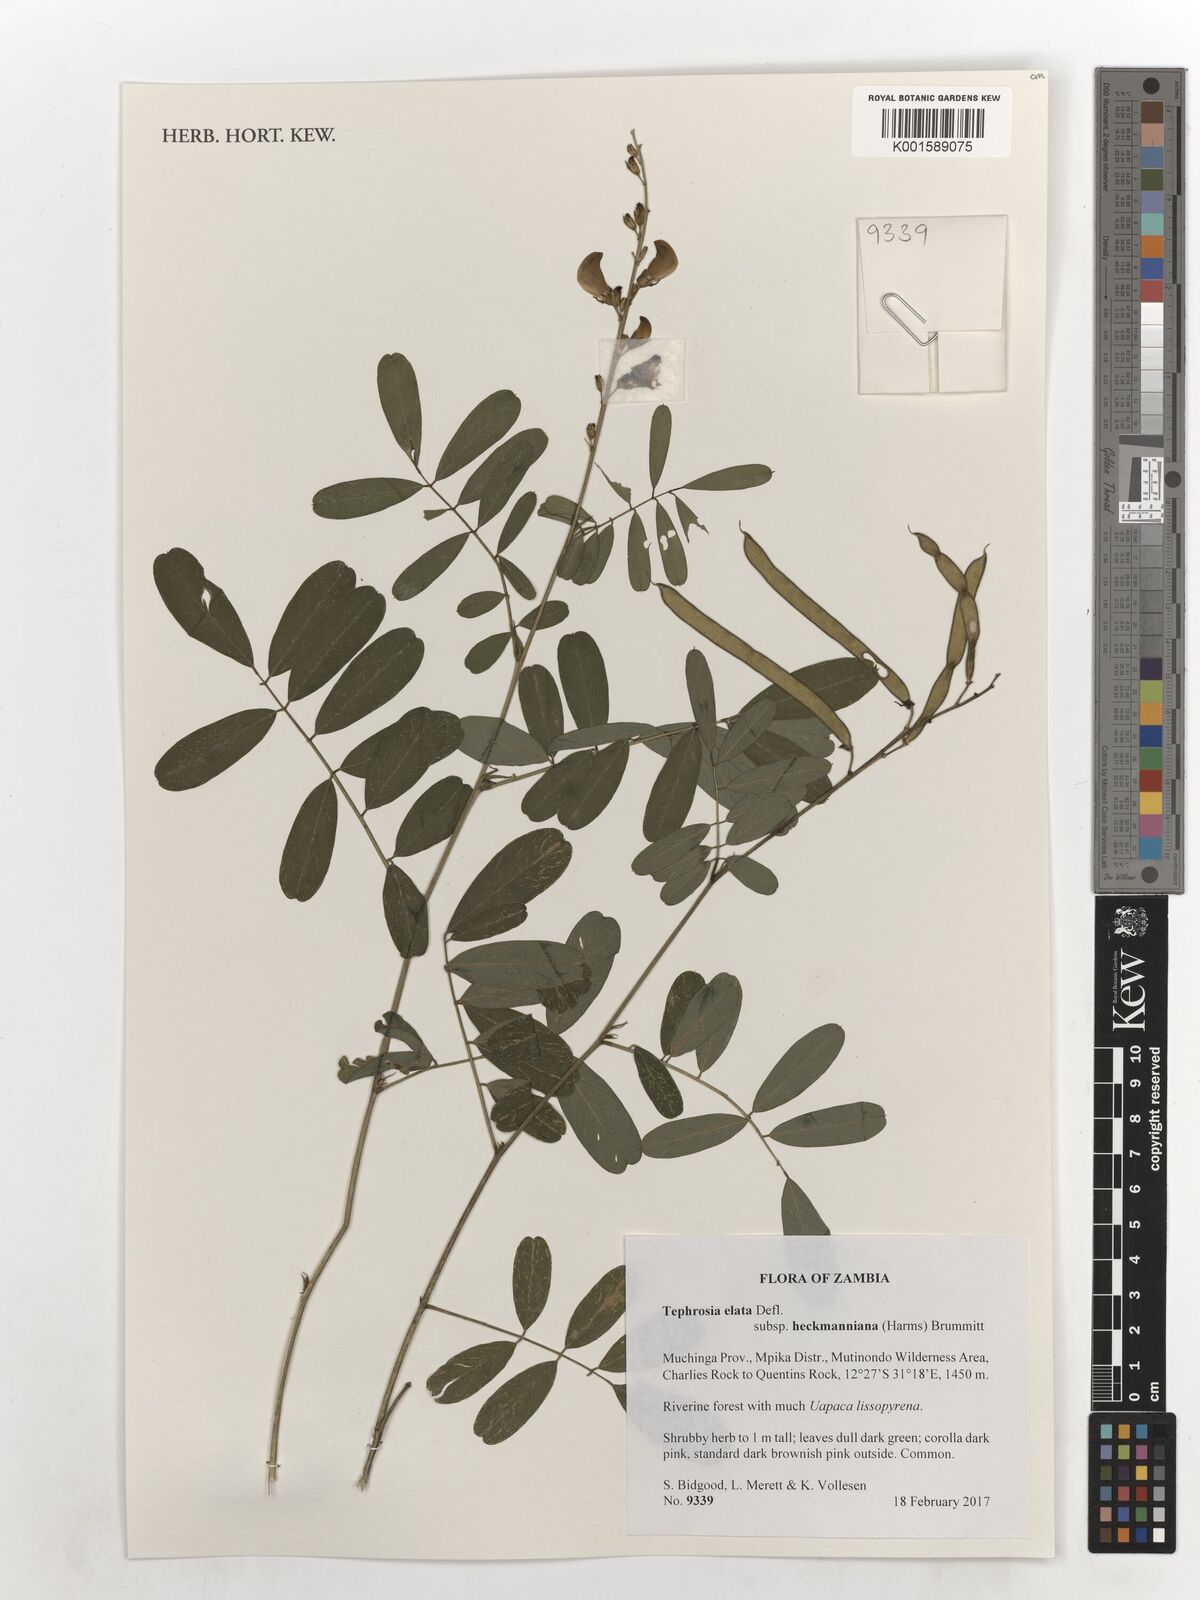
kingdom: Plantae
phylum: Tracheophyta
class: Magnoliopsida
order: Fabales
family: Fabaceae
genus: Tephrosia
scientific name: Tephrosia elata
